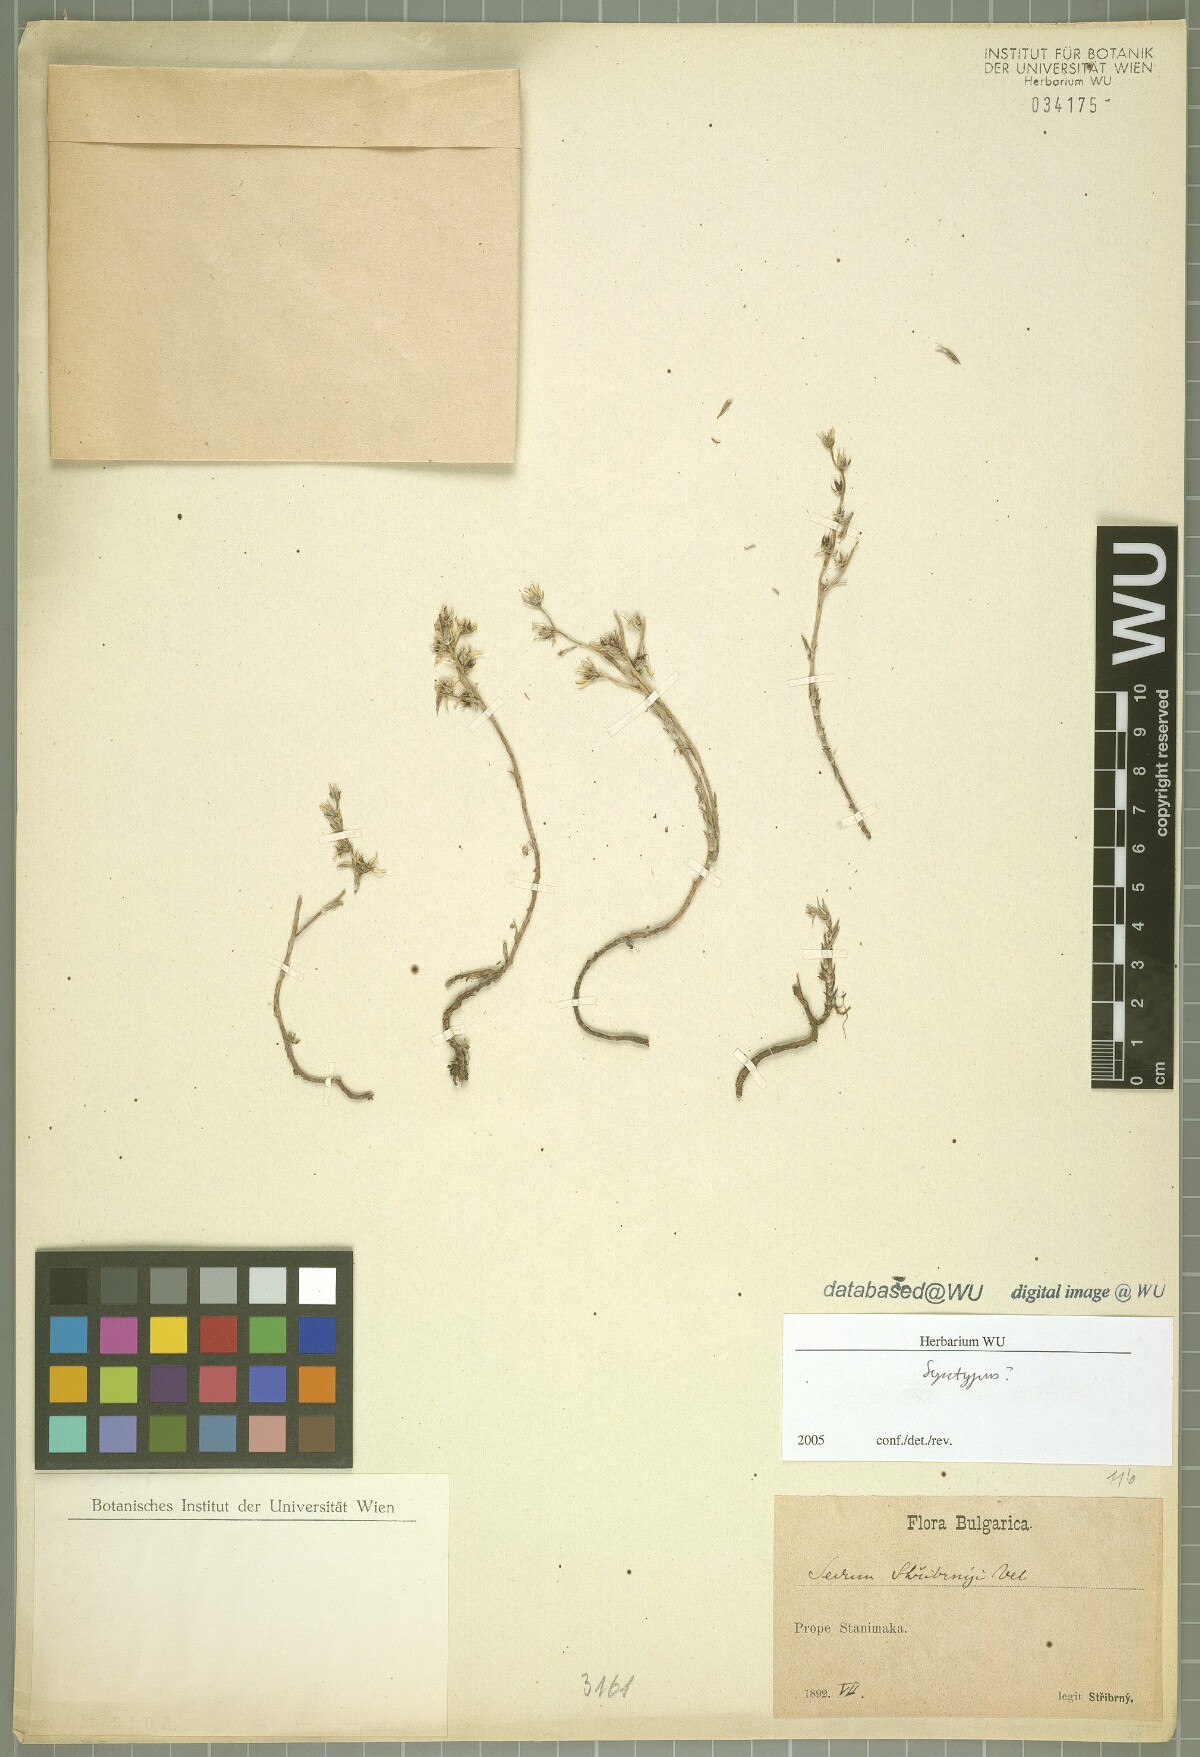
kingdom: Plantae
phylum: Tracheophyta
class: Magnoliopsida
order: Saxifragales
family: Crassulaceae
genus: Sedum
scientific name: Sedum urvillei
